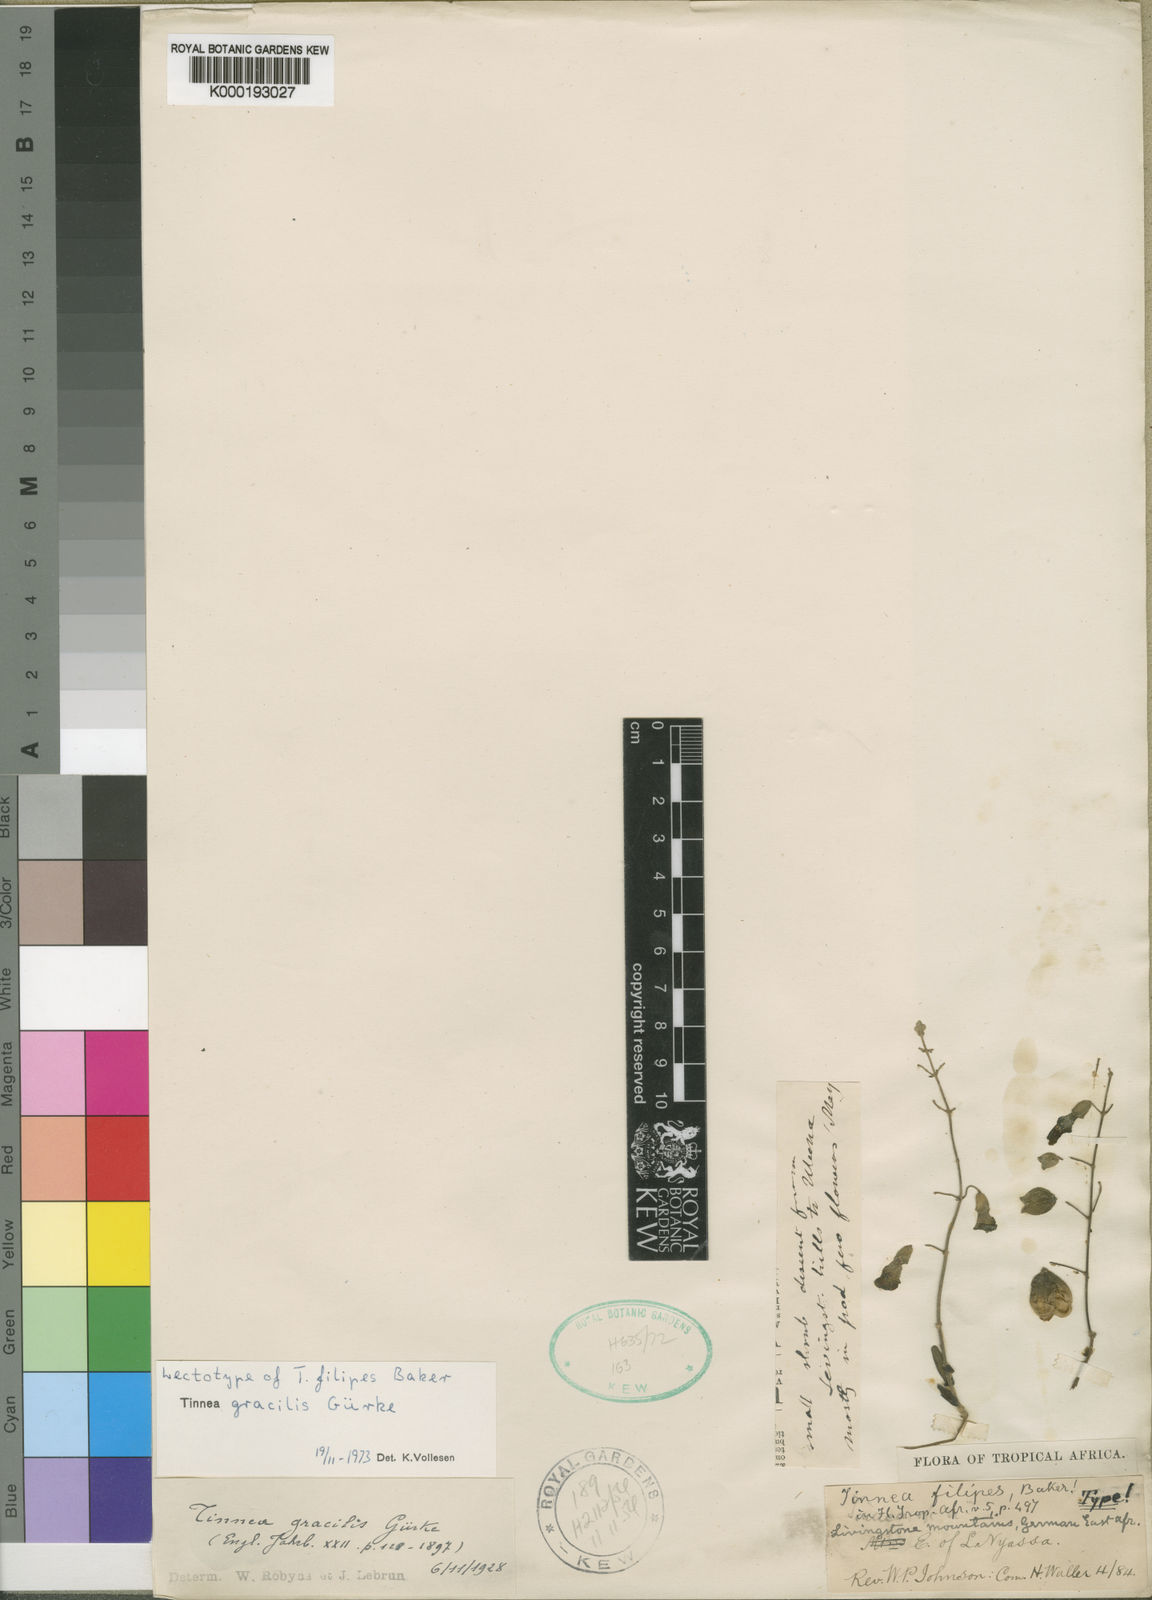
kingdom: Plantae
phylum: Tracheophyta
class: Magnoliopsida
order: Lamiales
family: Lamiaceae
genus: Tinnea
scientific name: Tinnea
